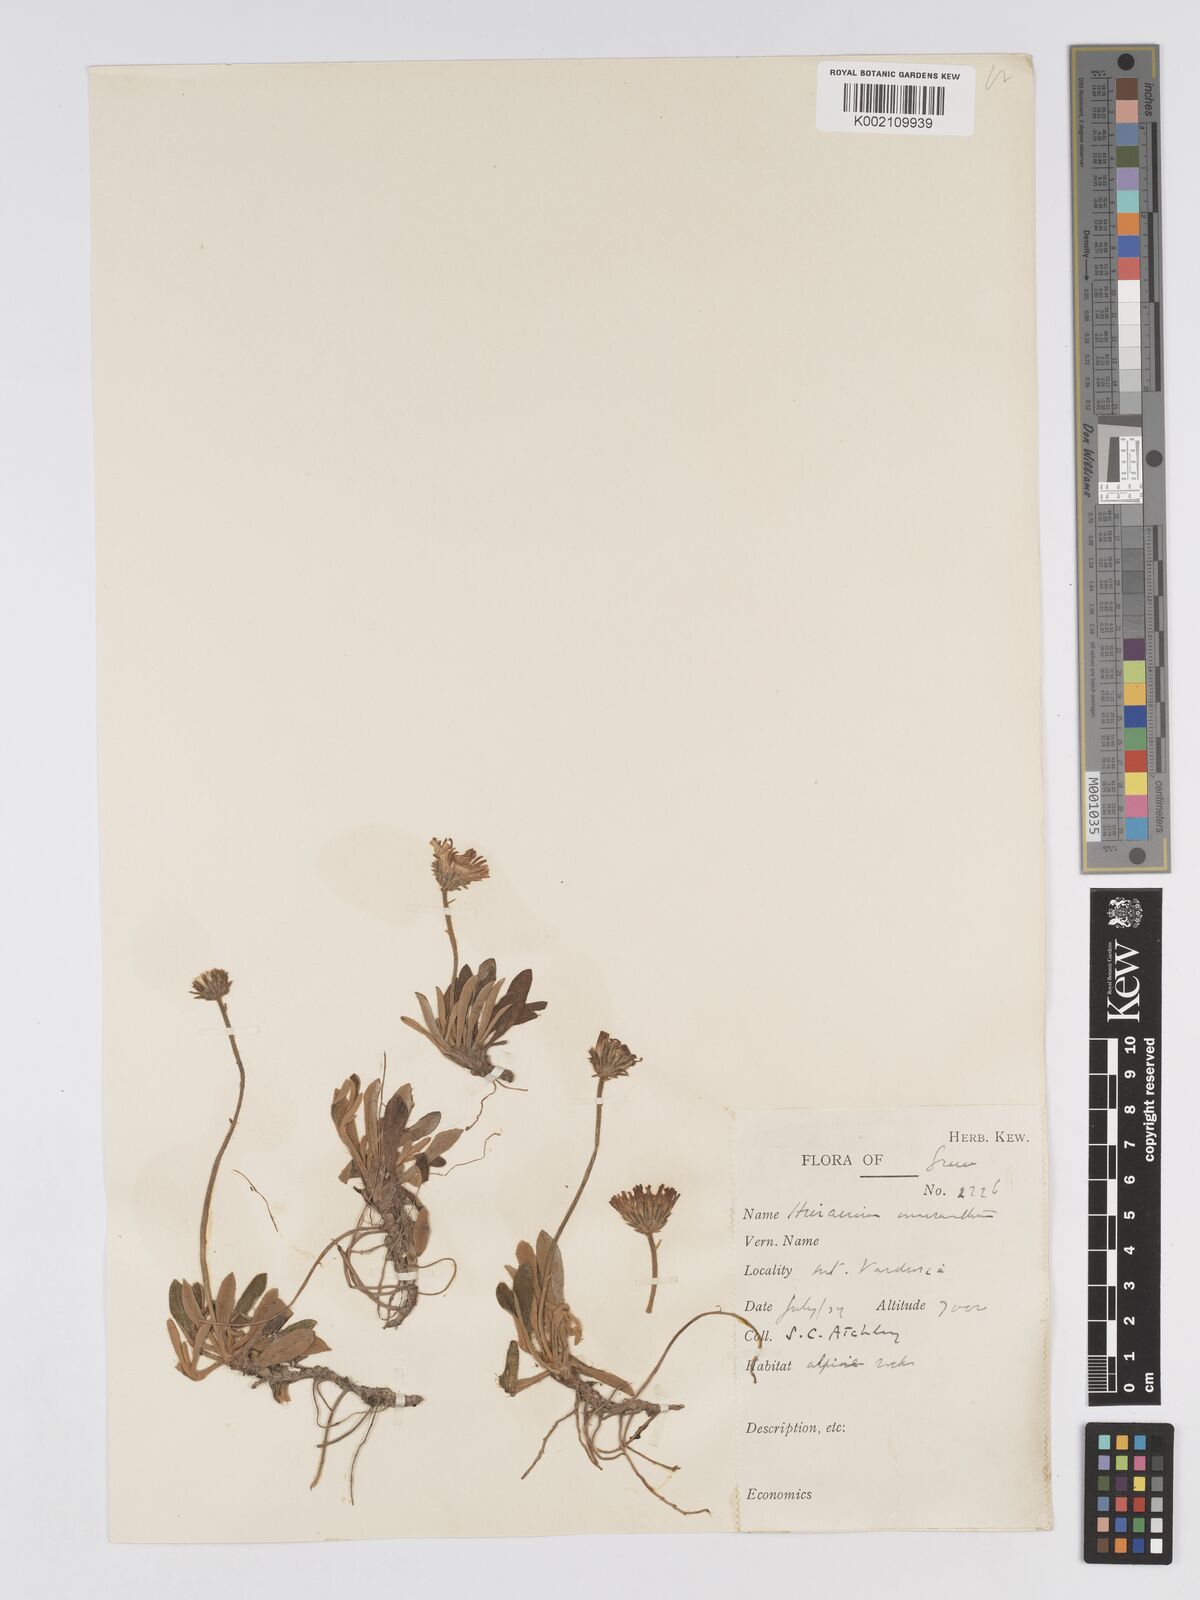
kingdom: Plantae
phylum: Tracheophyta
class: Magnoliopsida
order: Asterales
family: Asteraceae
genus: Pilosella
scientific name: Pilosella hoppeana
